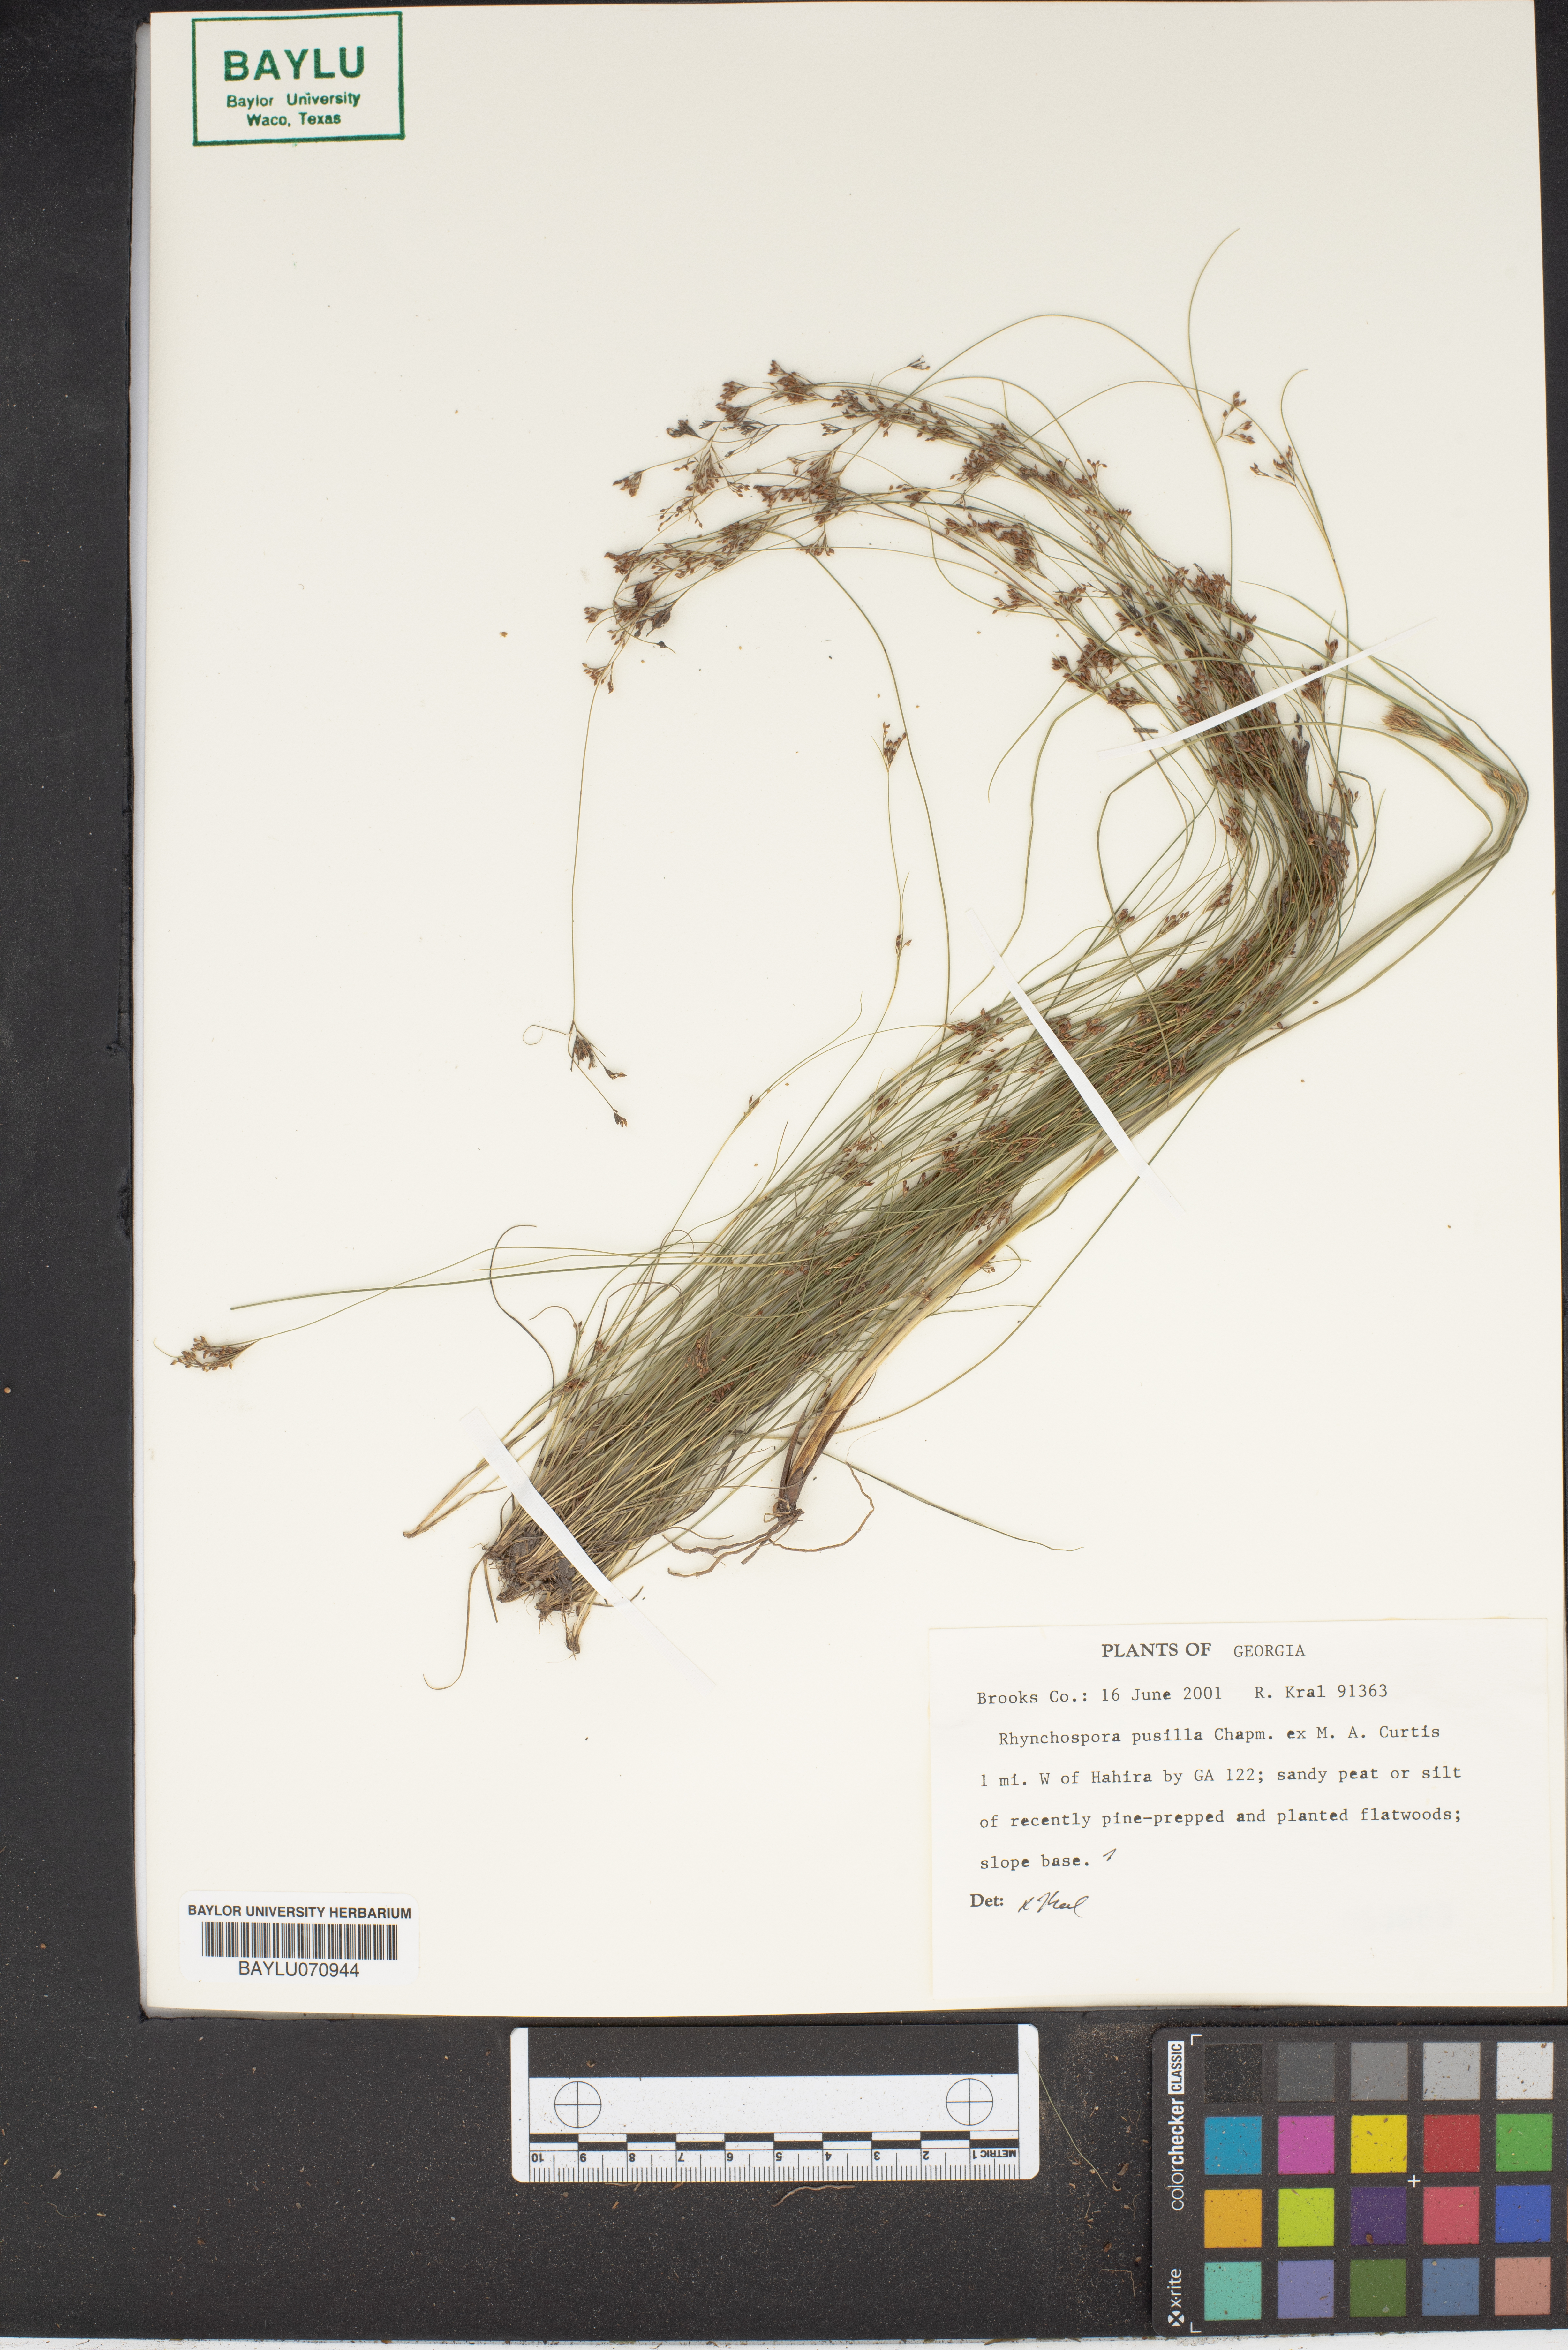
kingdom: Plantae
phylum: Tracheophyta
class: Liliopsida
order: Poales
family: Cyperaceae
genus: Rhynchospora
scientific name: Rhynchospora pusilla
